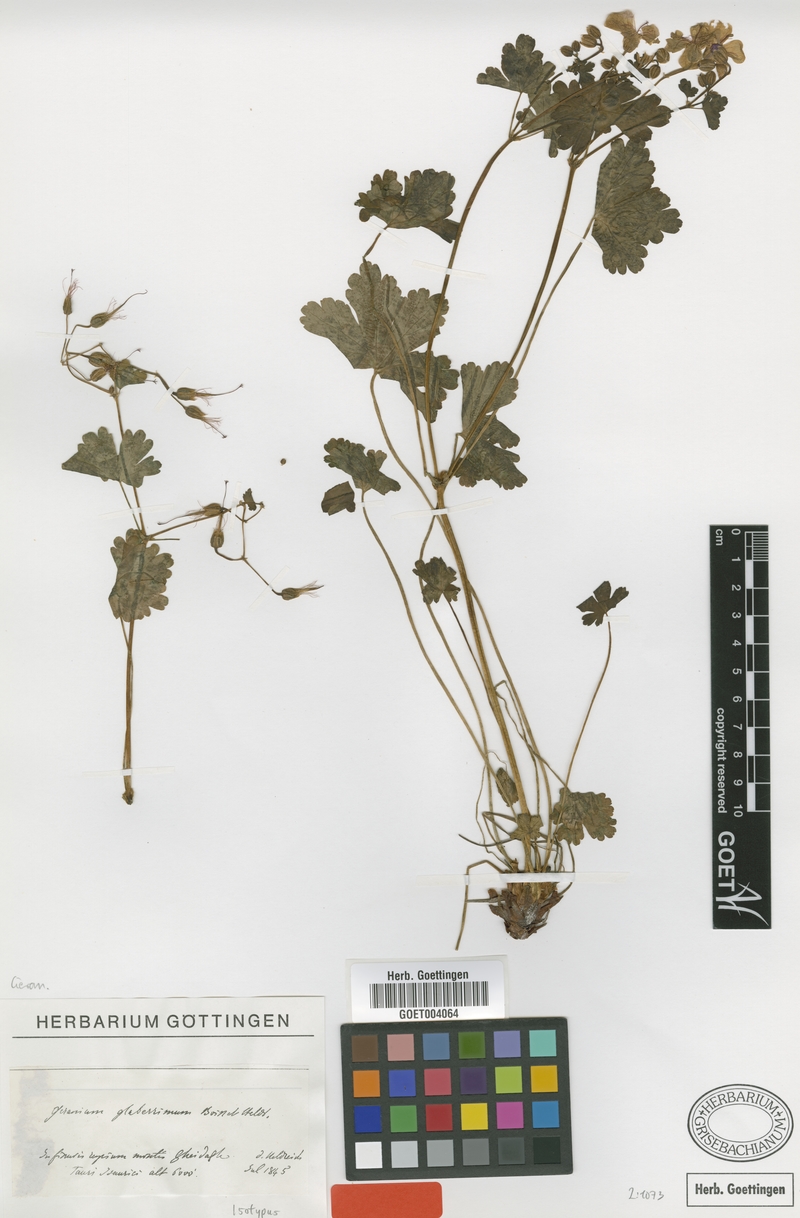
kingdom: Plantae
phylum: Tracheophyta
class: Magnoliopsida
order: Geraniales
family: Geraniaceae
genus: Geranium
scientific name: Geranium glaberrimum
